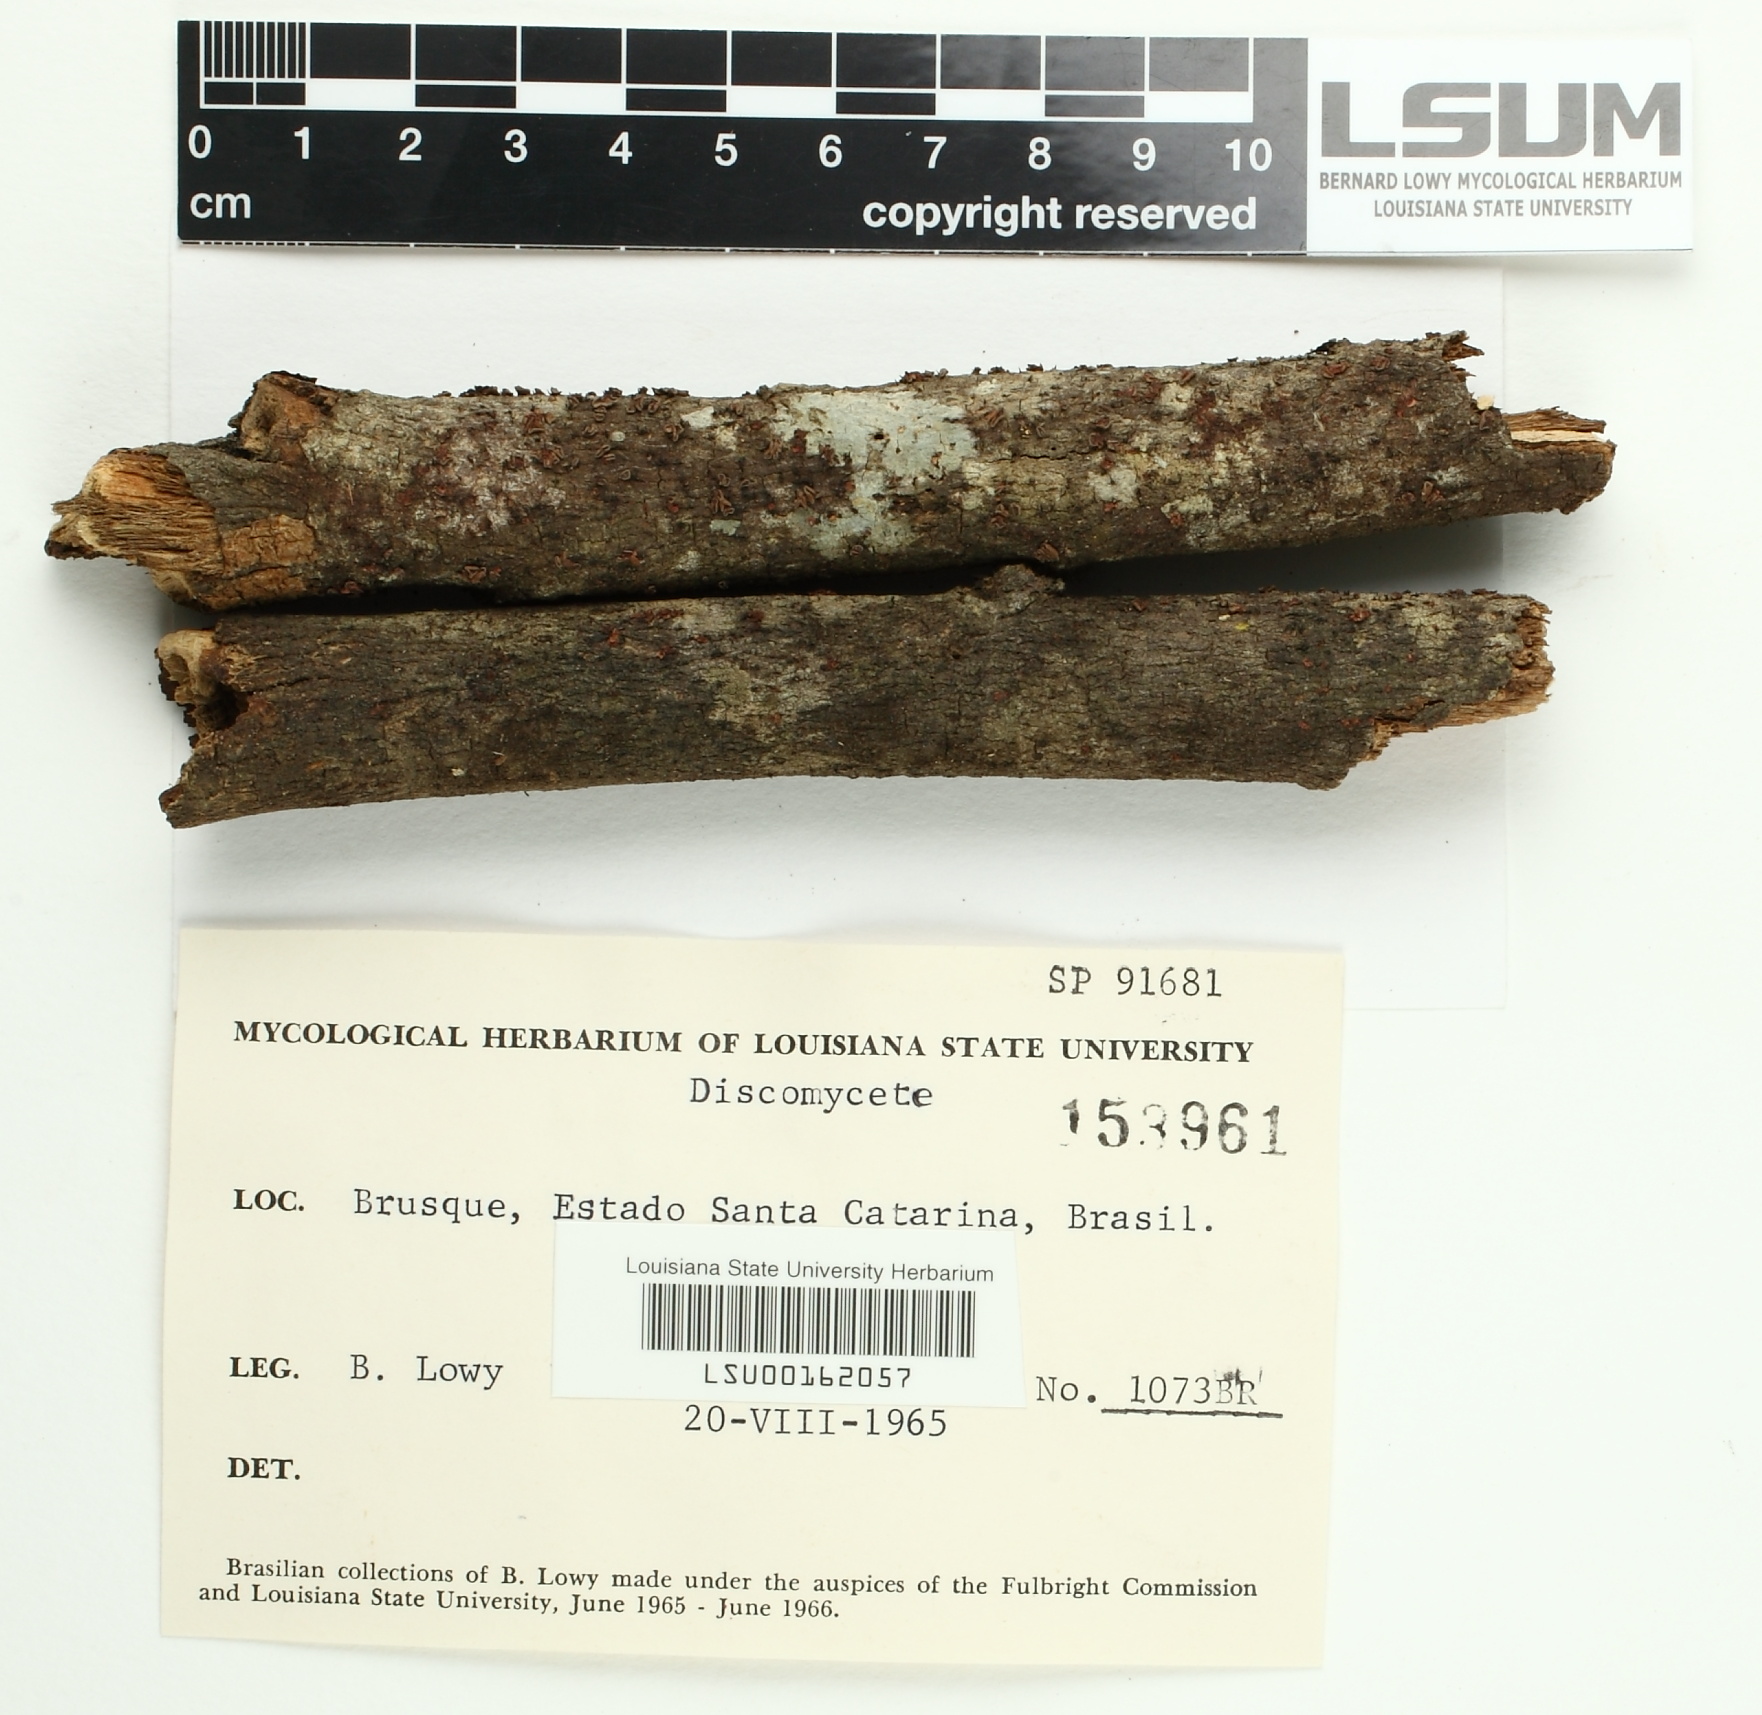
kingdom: Fungi
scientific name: Fungi
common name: Fungi
